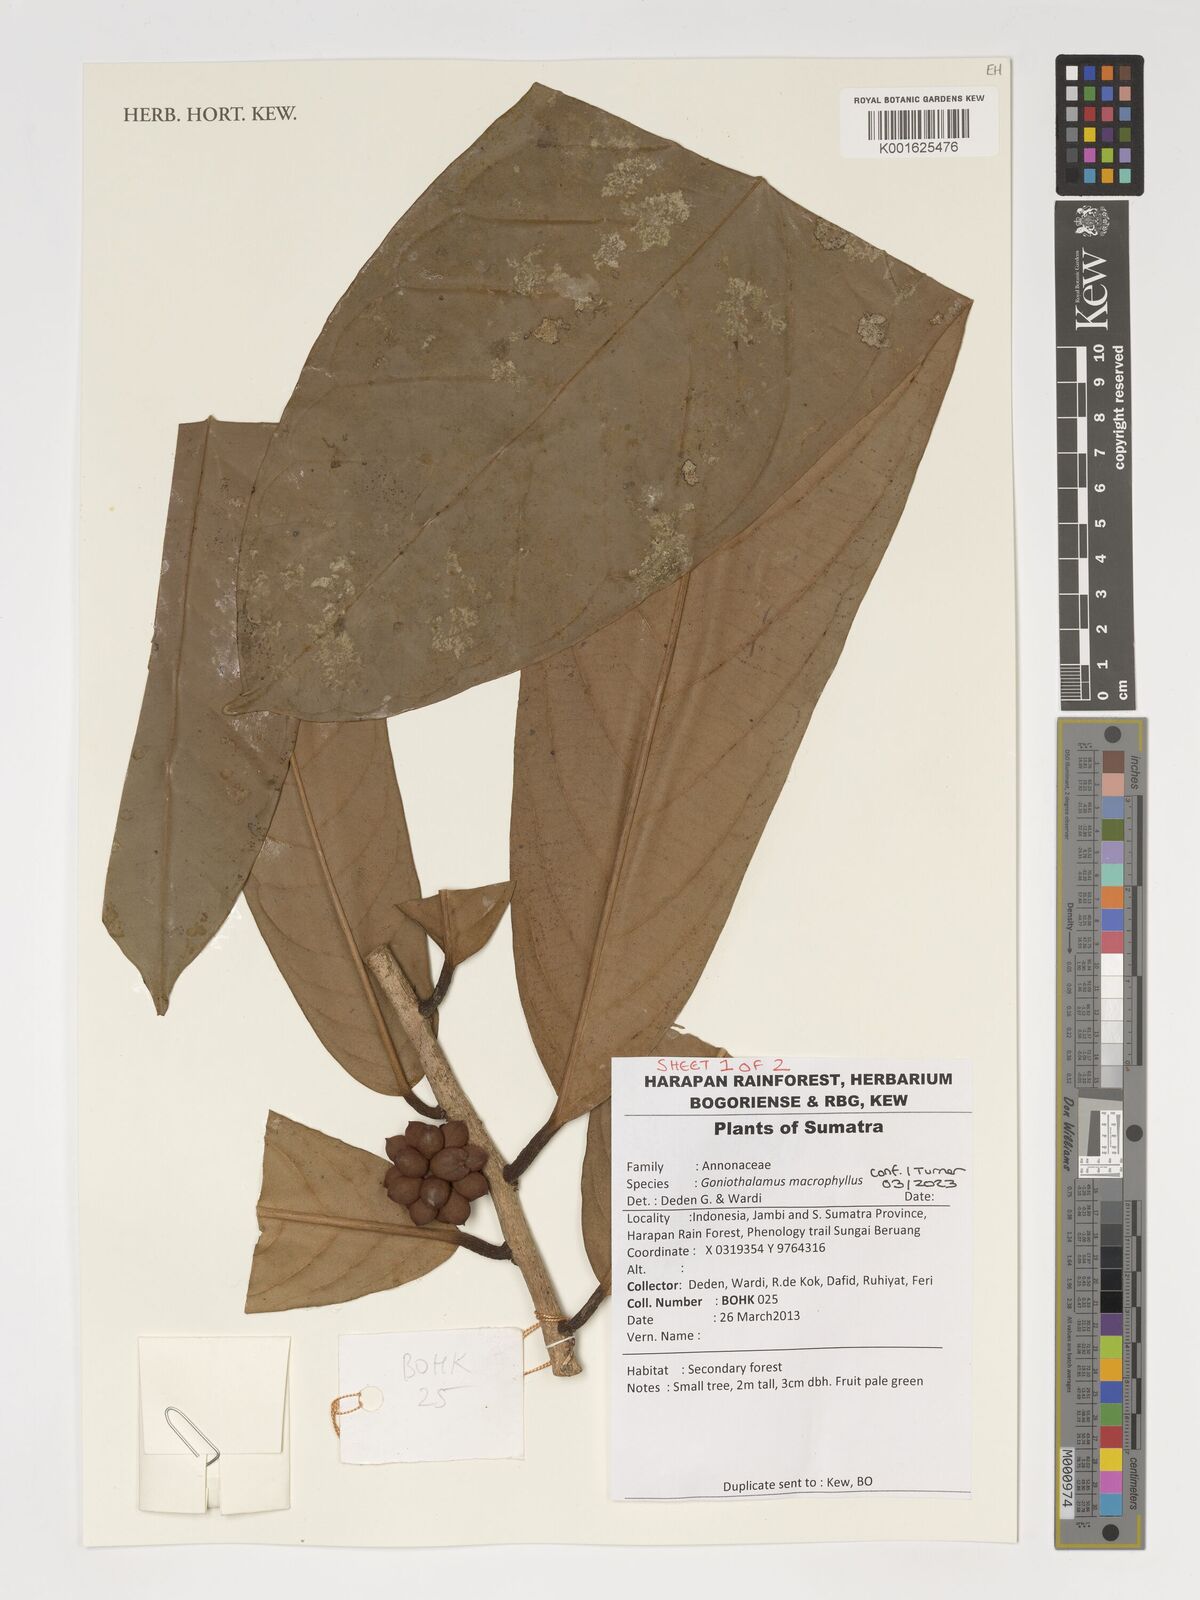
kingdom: Plantae
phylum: Tracheophyta
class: Magnoliopsida
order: Magnoliales
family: Annonaceae
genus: Goniothalamus
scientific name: Goniothalamus macrophyllus
